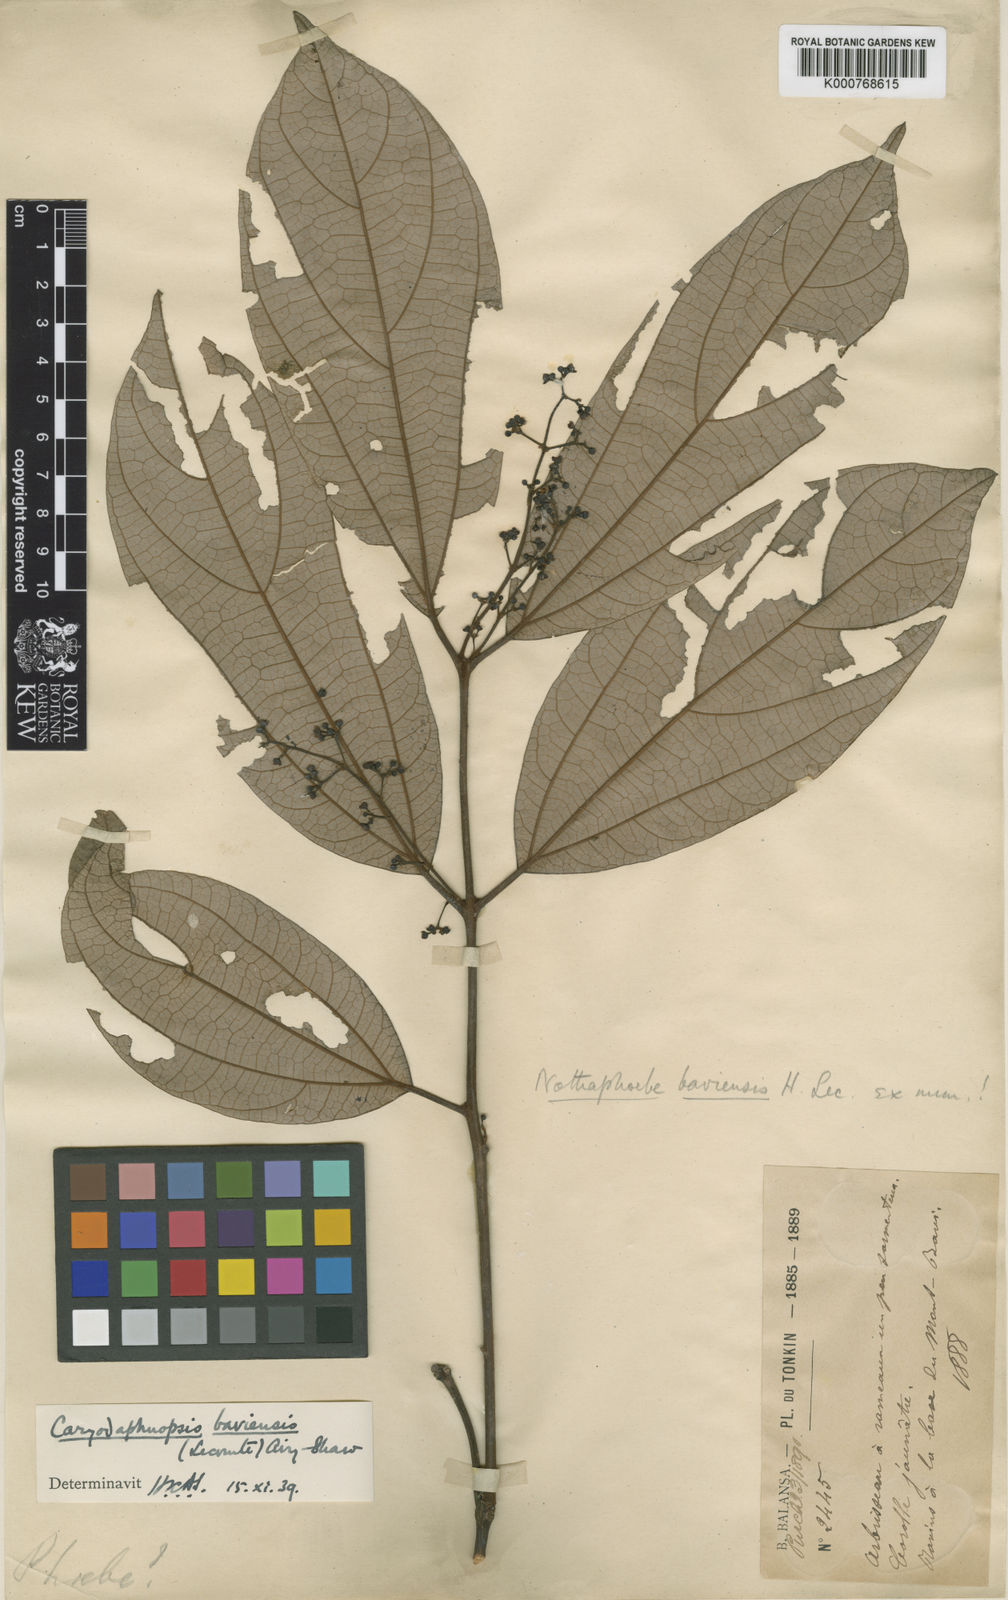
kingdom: Plantae
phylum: Tracheophyta
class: Magnoliopsida
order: Laurales
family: Lauraceae
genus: Caryodaphnopsis
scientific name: Caryodaphnopsis baviensis
